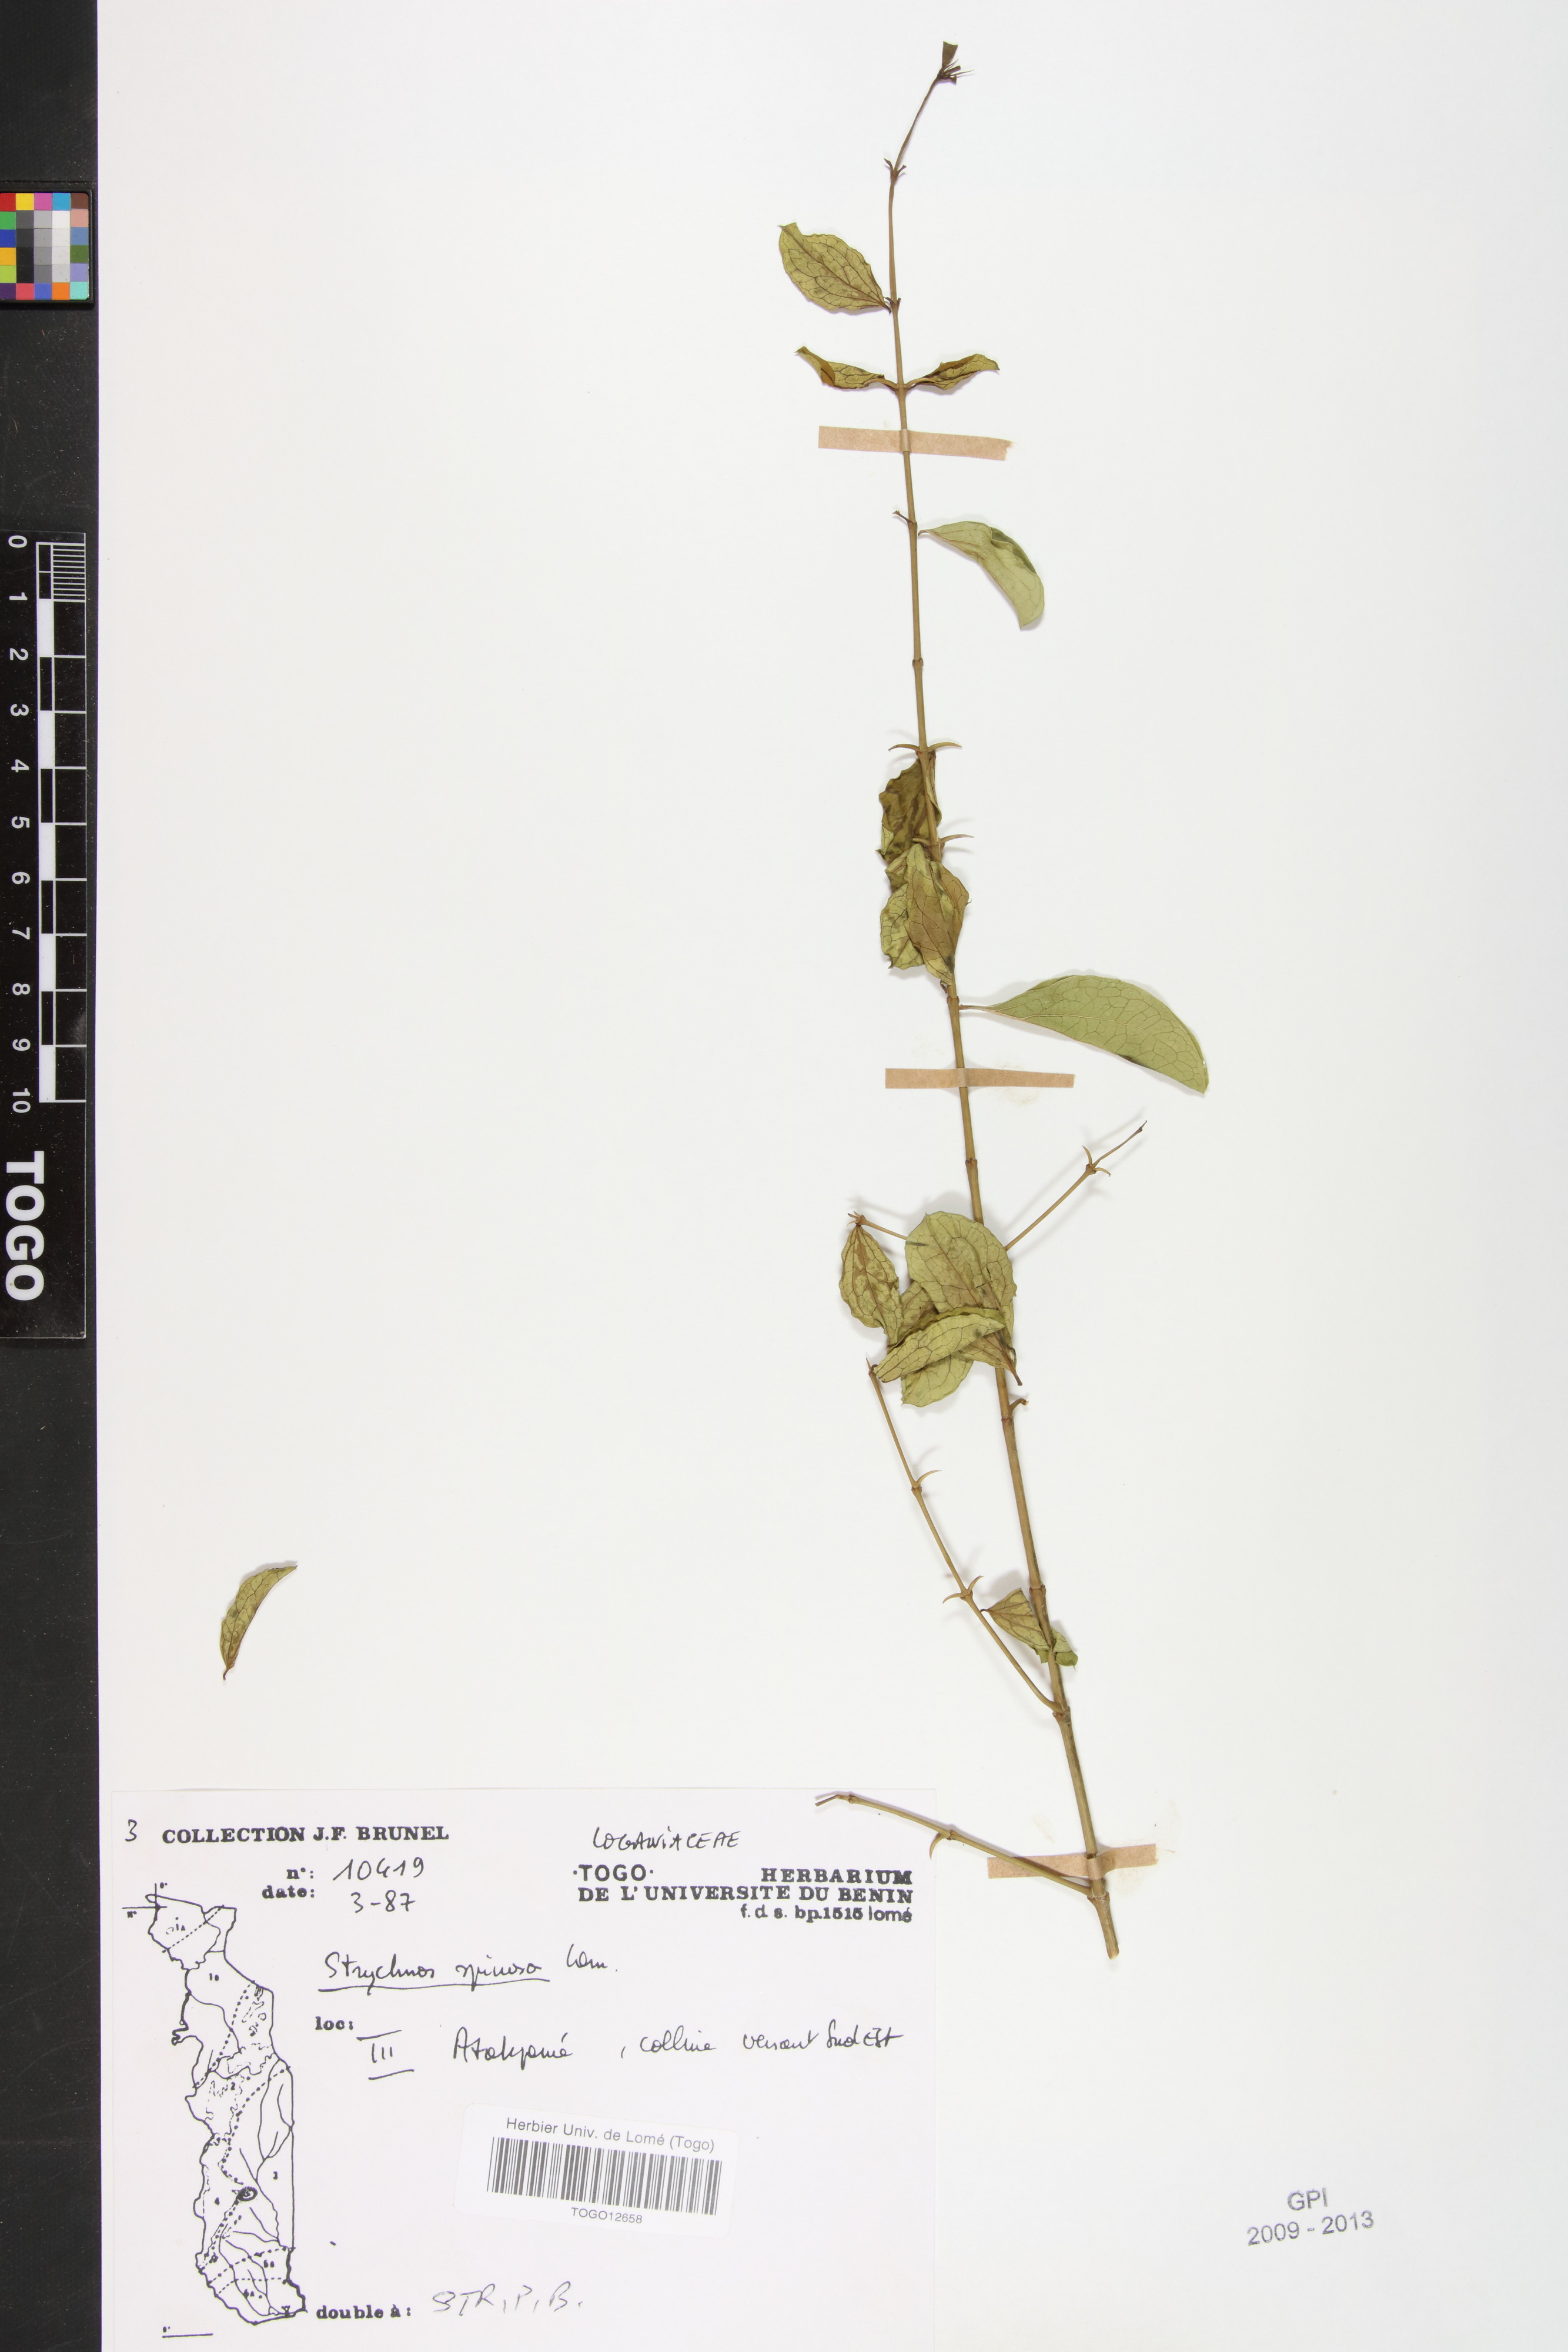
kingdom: Plantae
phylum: Tracheophyta
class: Magnoliopsida
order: Gentianales
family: Loganiaceae
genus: Strychnos
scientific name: Strychnos spinosa
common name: Natal orange
